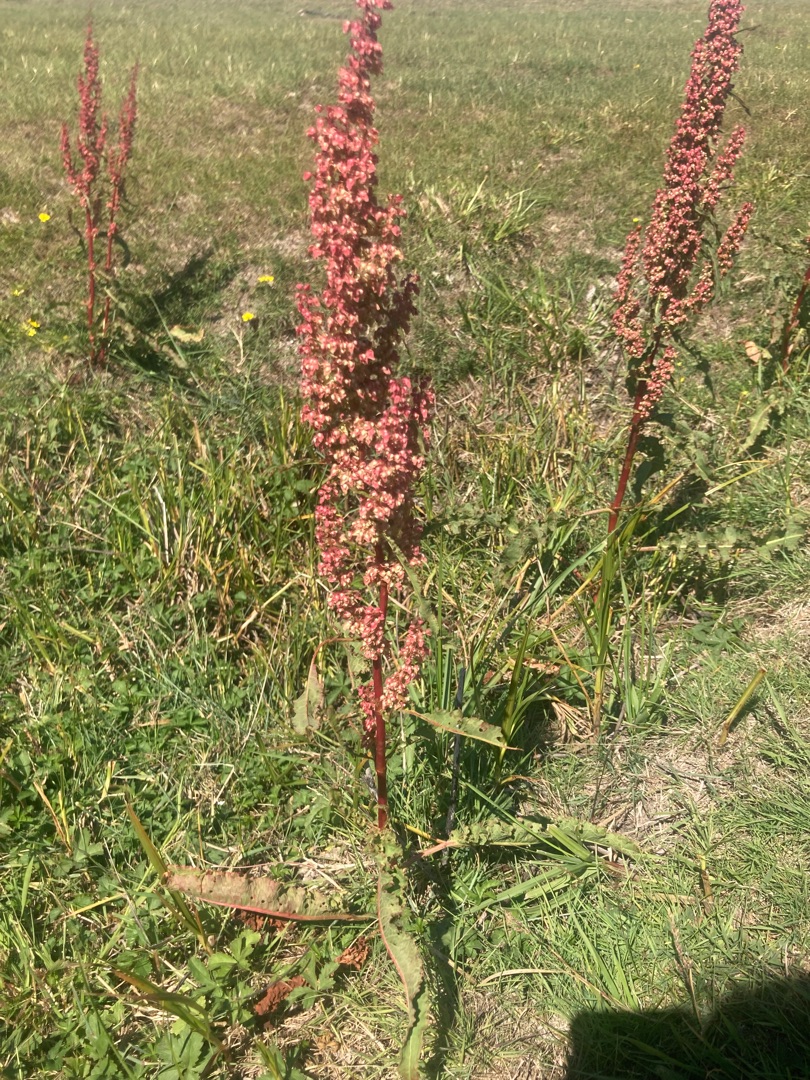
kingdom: Plantae
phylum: Tracheophyta
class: Magnoliopsida
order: Caryophyllales
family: Polygonaceae
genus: Rumex
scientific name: Rumex crispus
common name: Kruset skræppe
